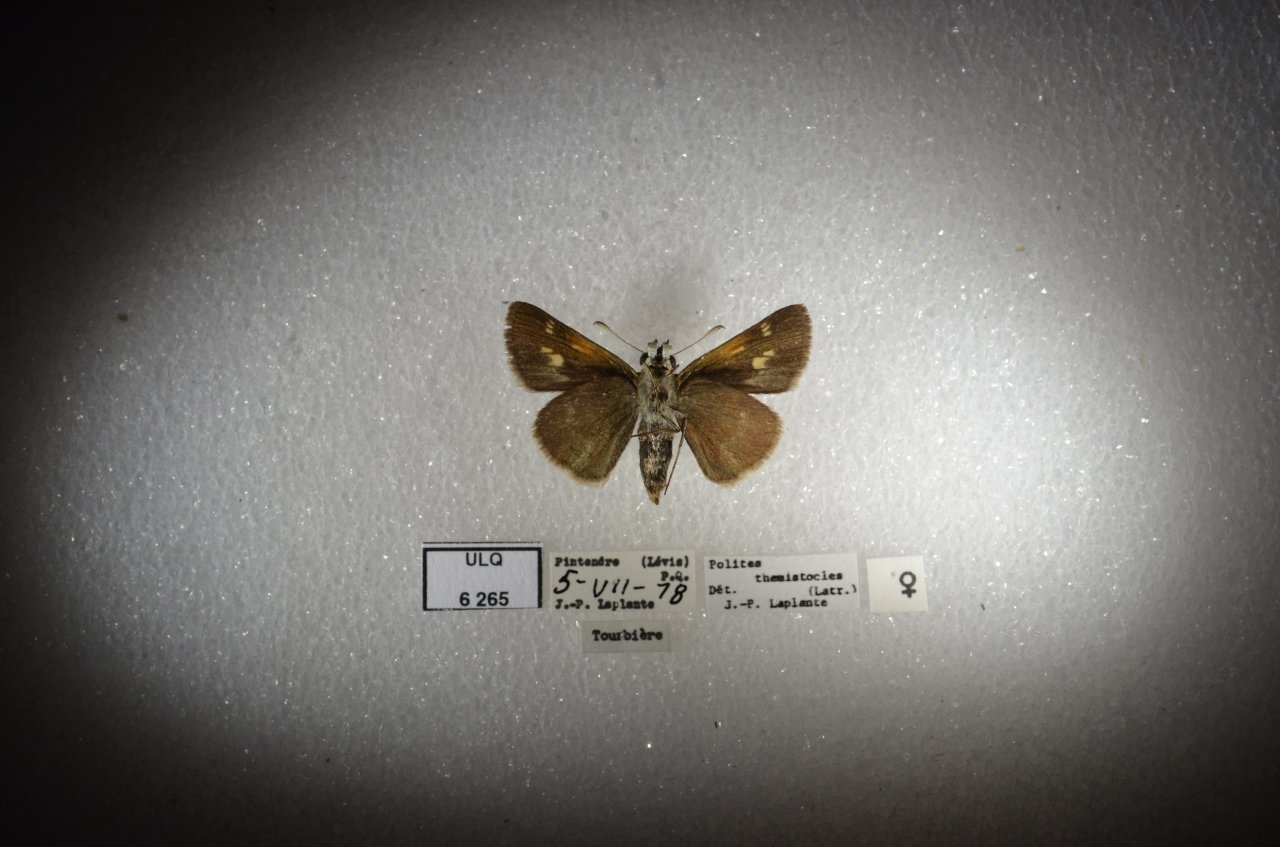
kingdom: Animalia
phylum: Arthropoda
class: Insecta
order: Lepidoptera
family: Hesperiidae
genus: Polites
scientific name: Polites themistocles
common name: Tawny-edged Skipper
